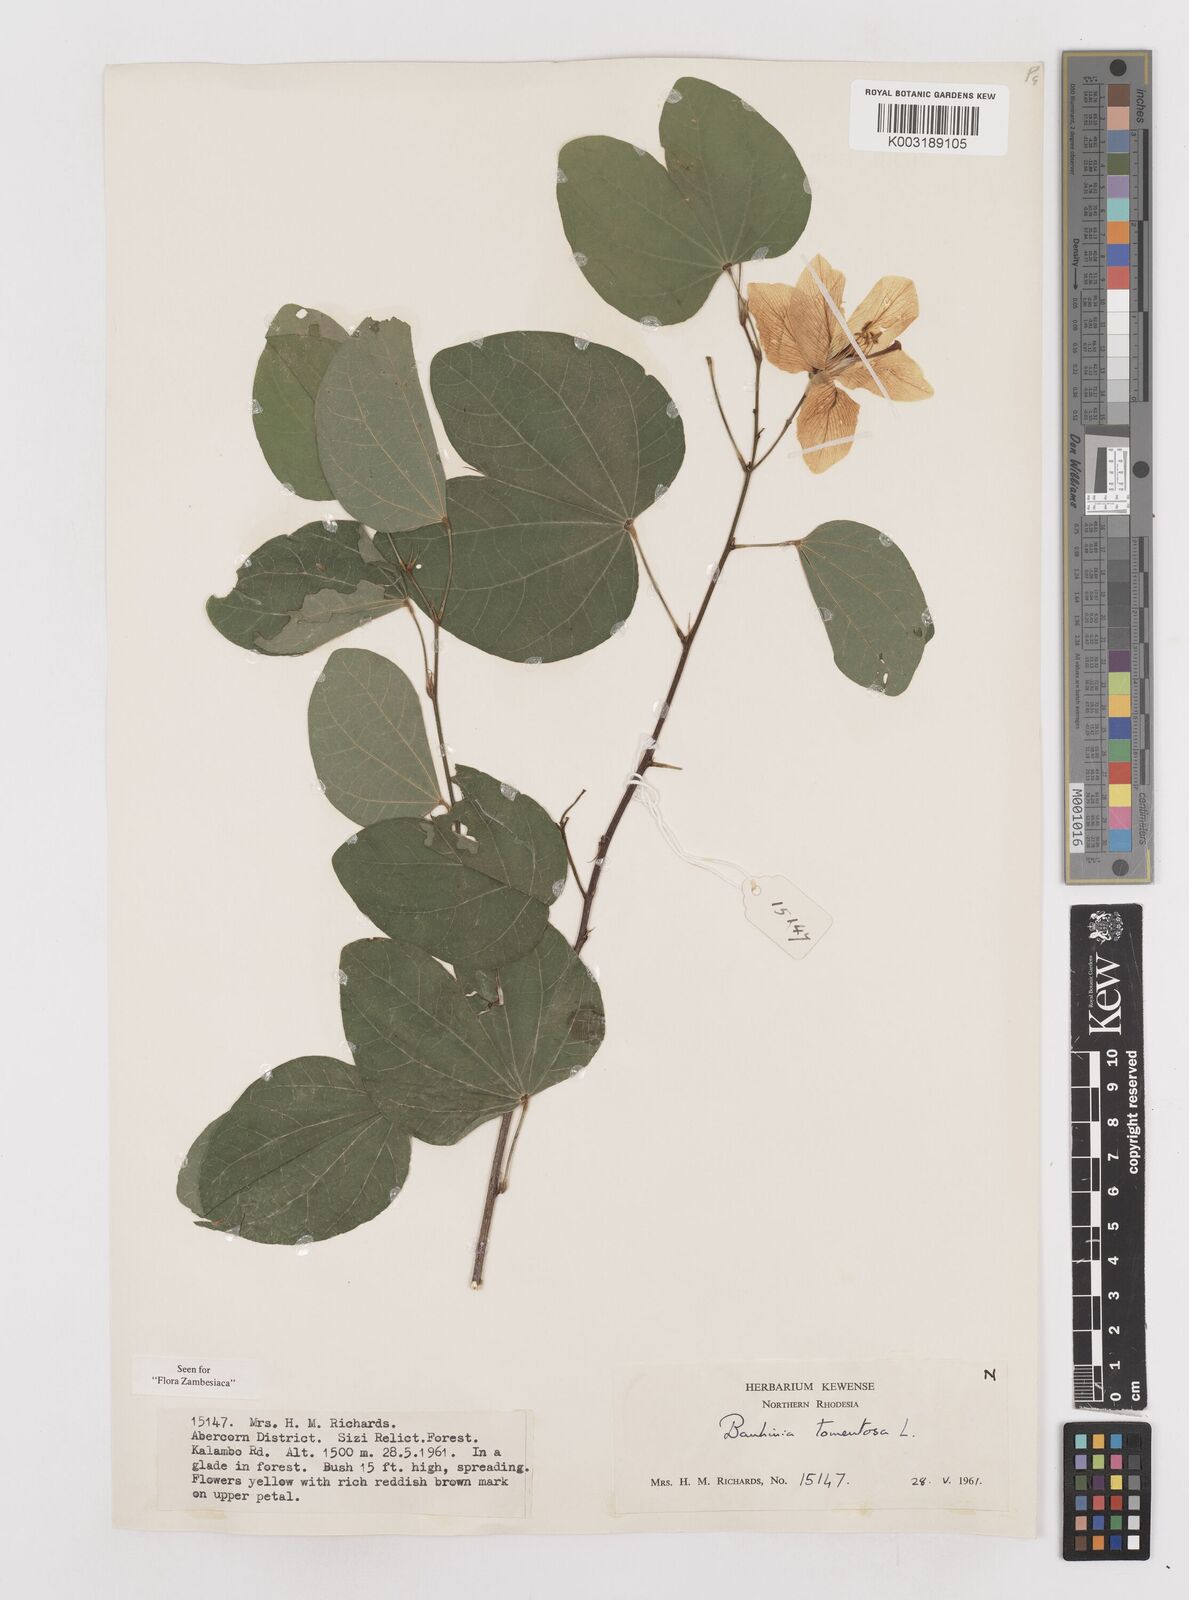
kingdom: Plantae
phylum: Tracheophyta
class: Magnoliopsida
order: Fabales
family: Fabaceae
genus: Bauhinia
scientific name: Bauhinia tomentosa
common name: Bell bauhinia
